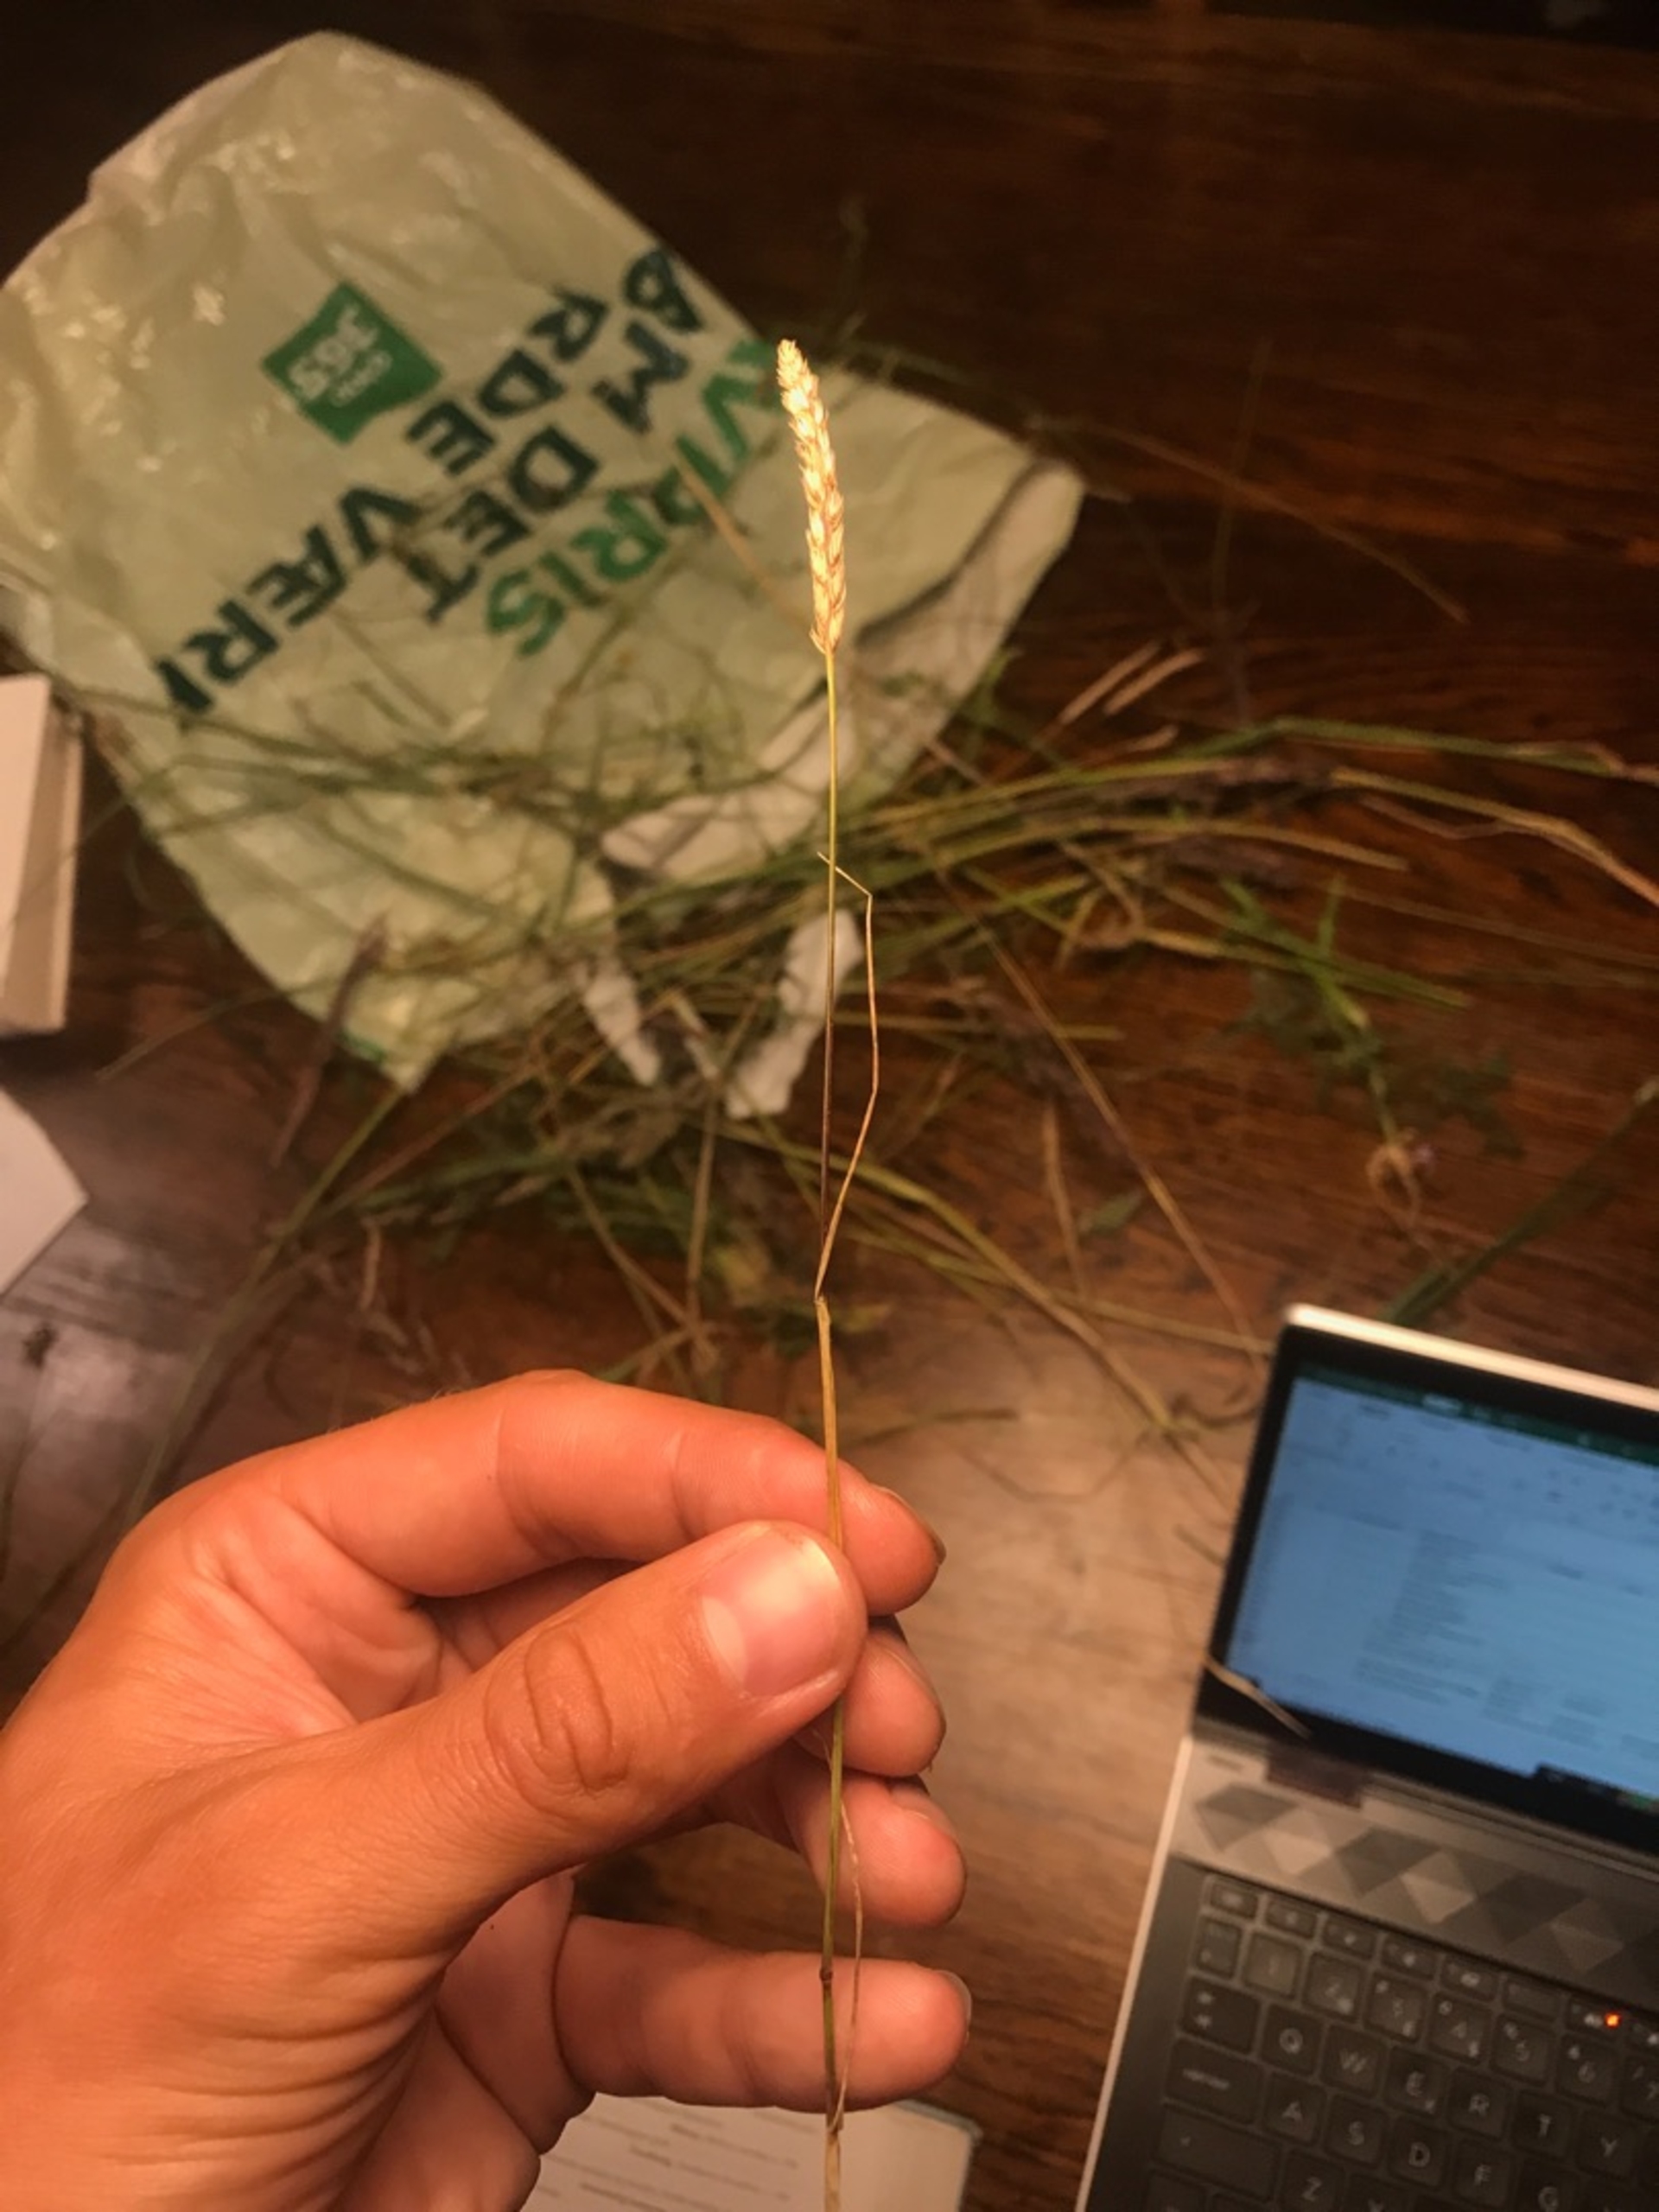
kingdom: Plantae
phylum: Tracheophyta
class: Liliopsida
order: Poales
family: Poaceae
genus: Cynosurus
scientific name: Cynosurus cristatus
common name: Kamgræs
